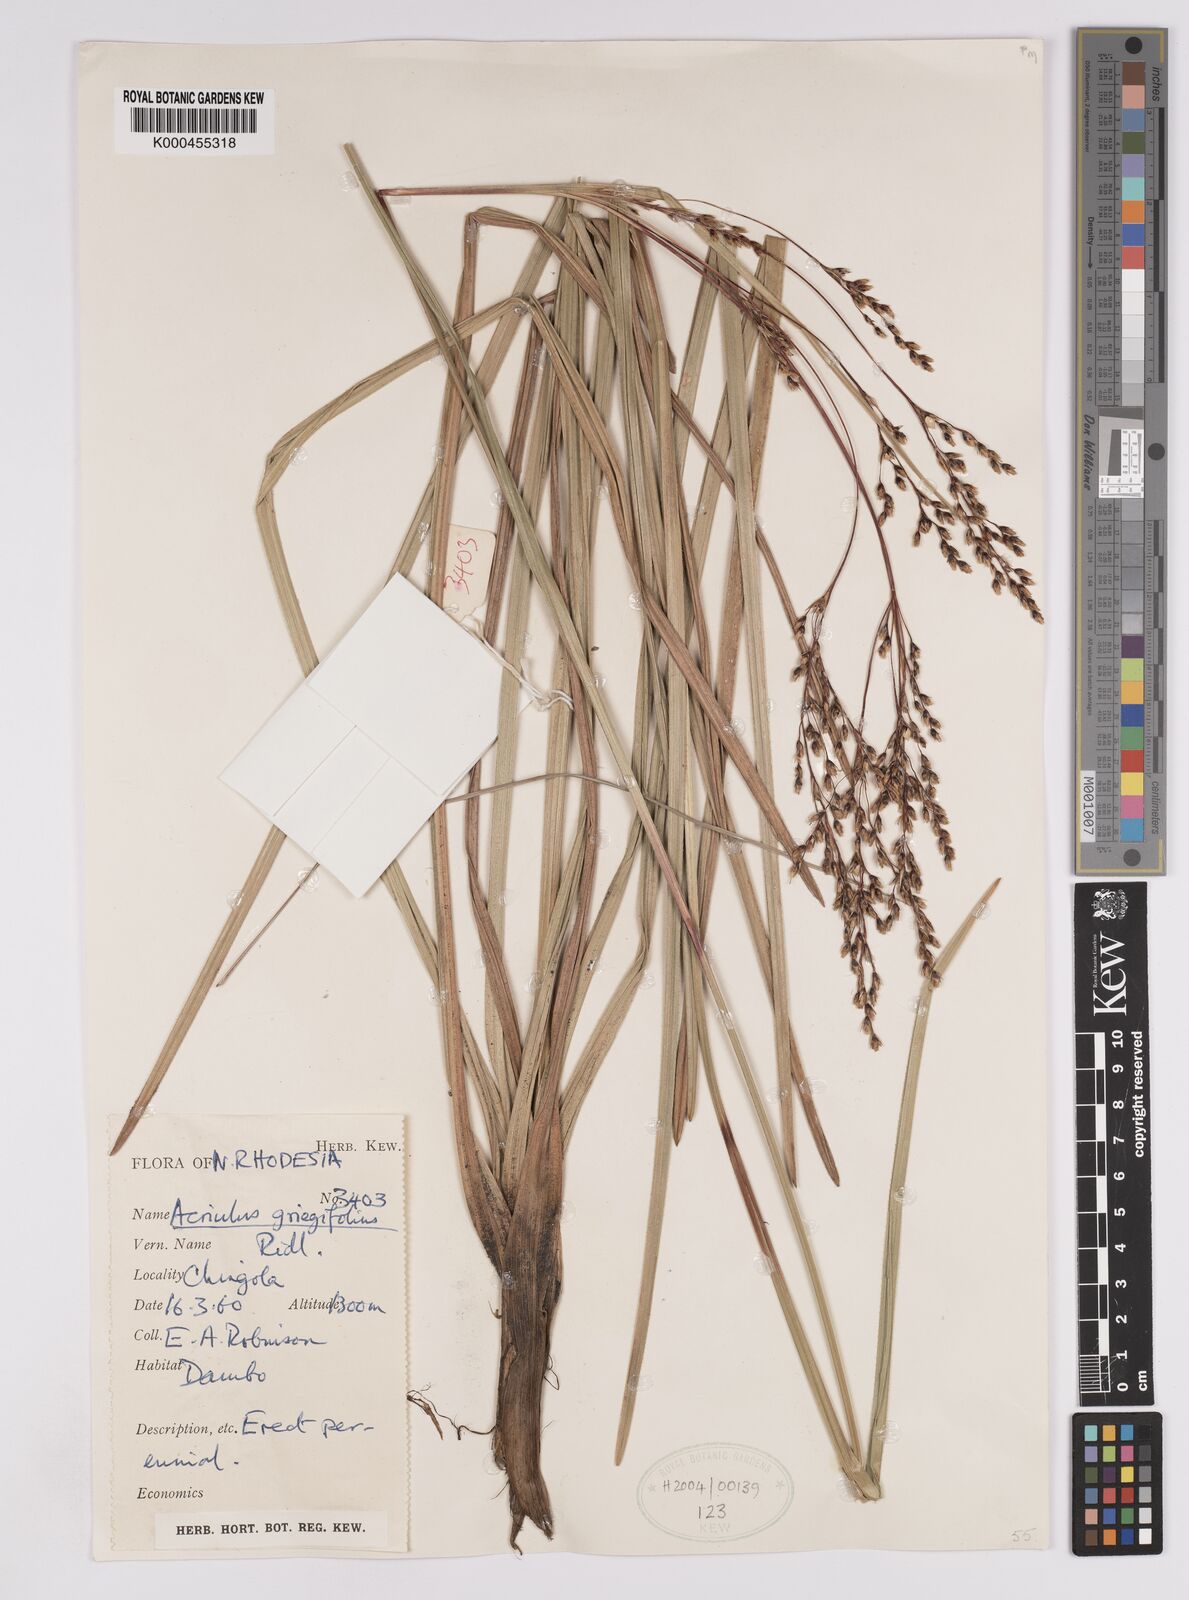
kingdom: Plantae
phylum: Tracheophyta
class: Liliopsida
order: Poales
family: Cyperaceae
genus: Scleria
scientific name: Scleria greigiifolia
